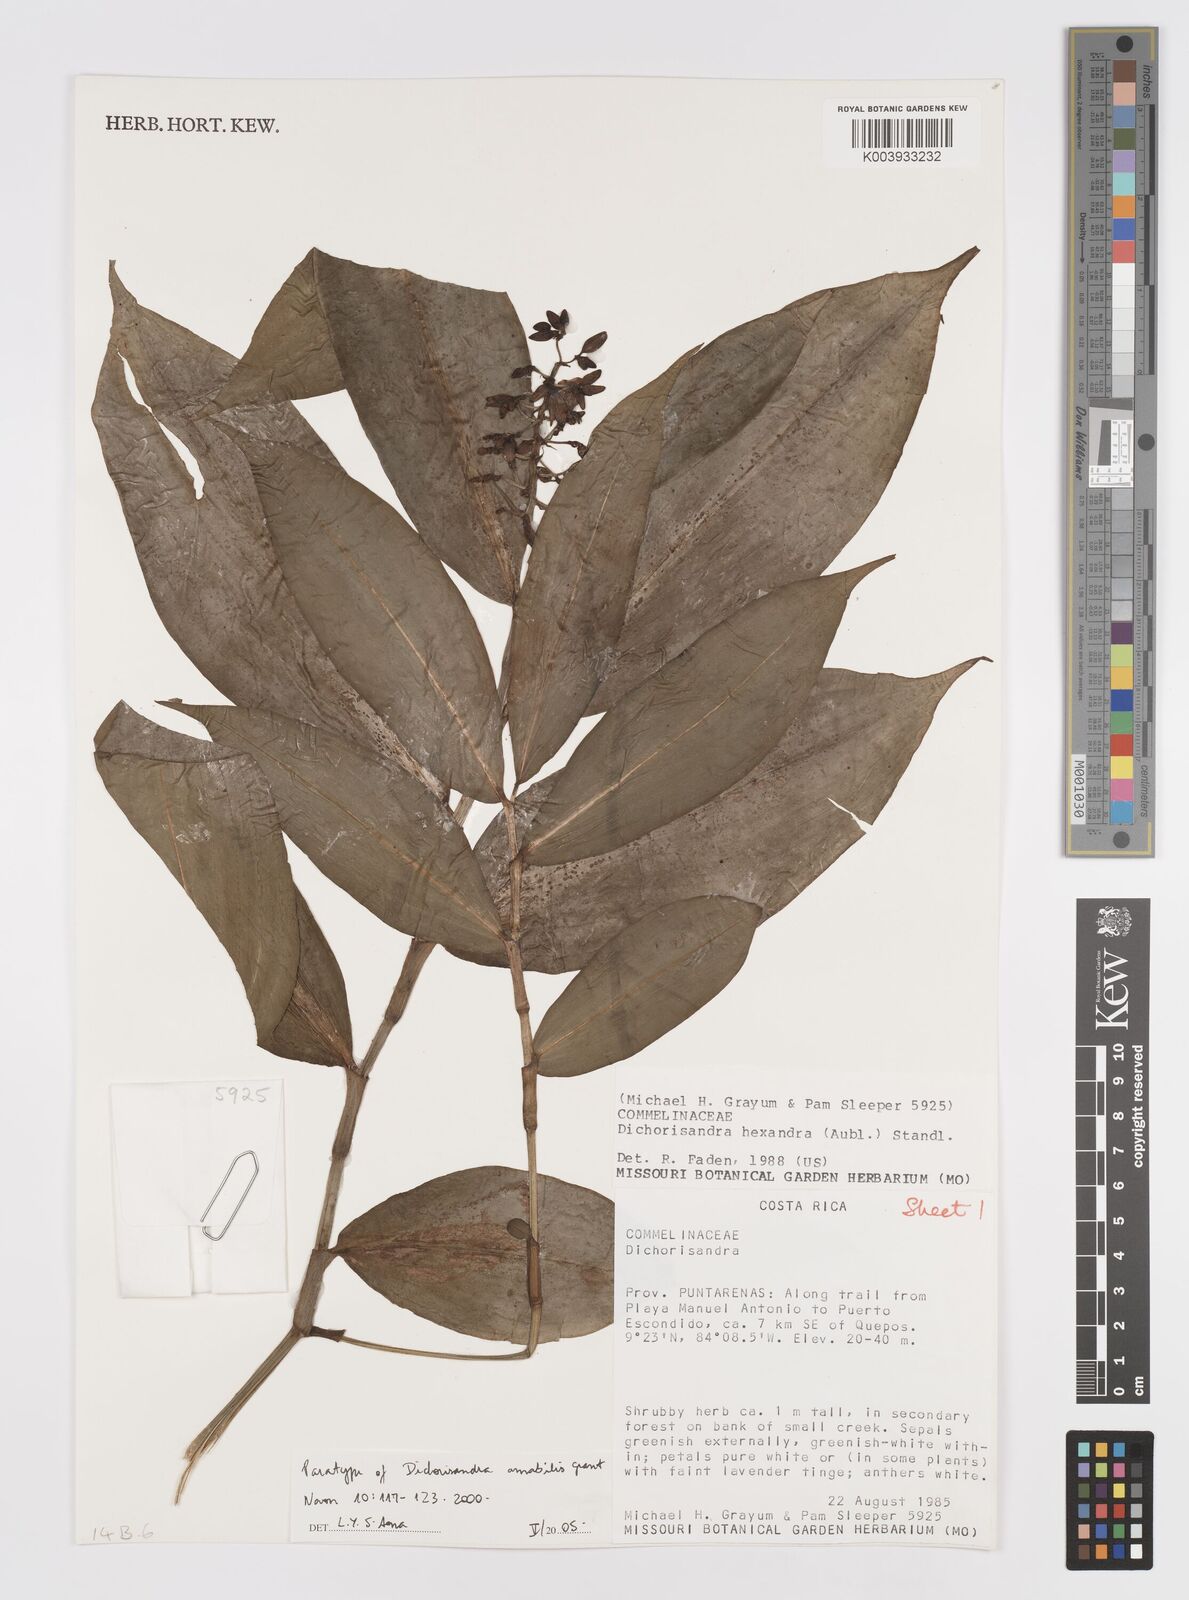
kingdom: Plantae
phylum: Tracheophyta
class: Liliopsida
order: Commelinales
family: Commelinaceae
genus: Dichorisandra
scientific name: Dichorisandra amabilis
